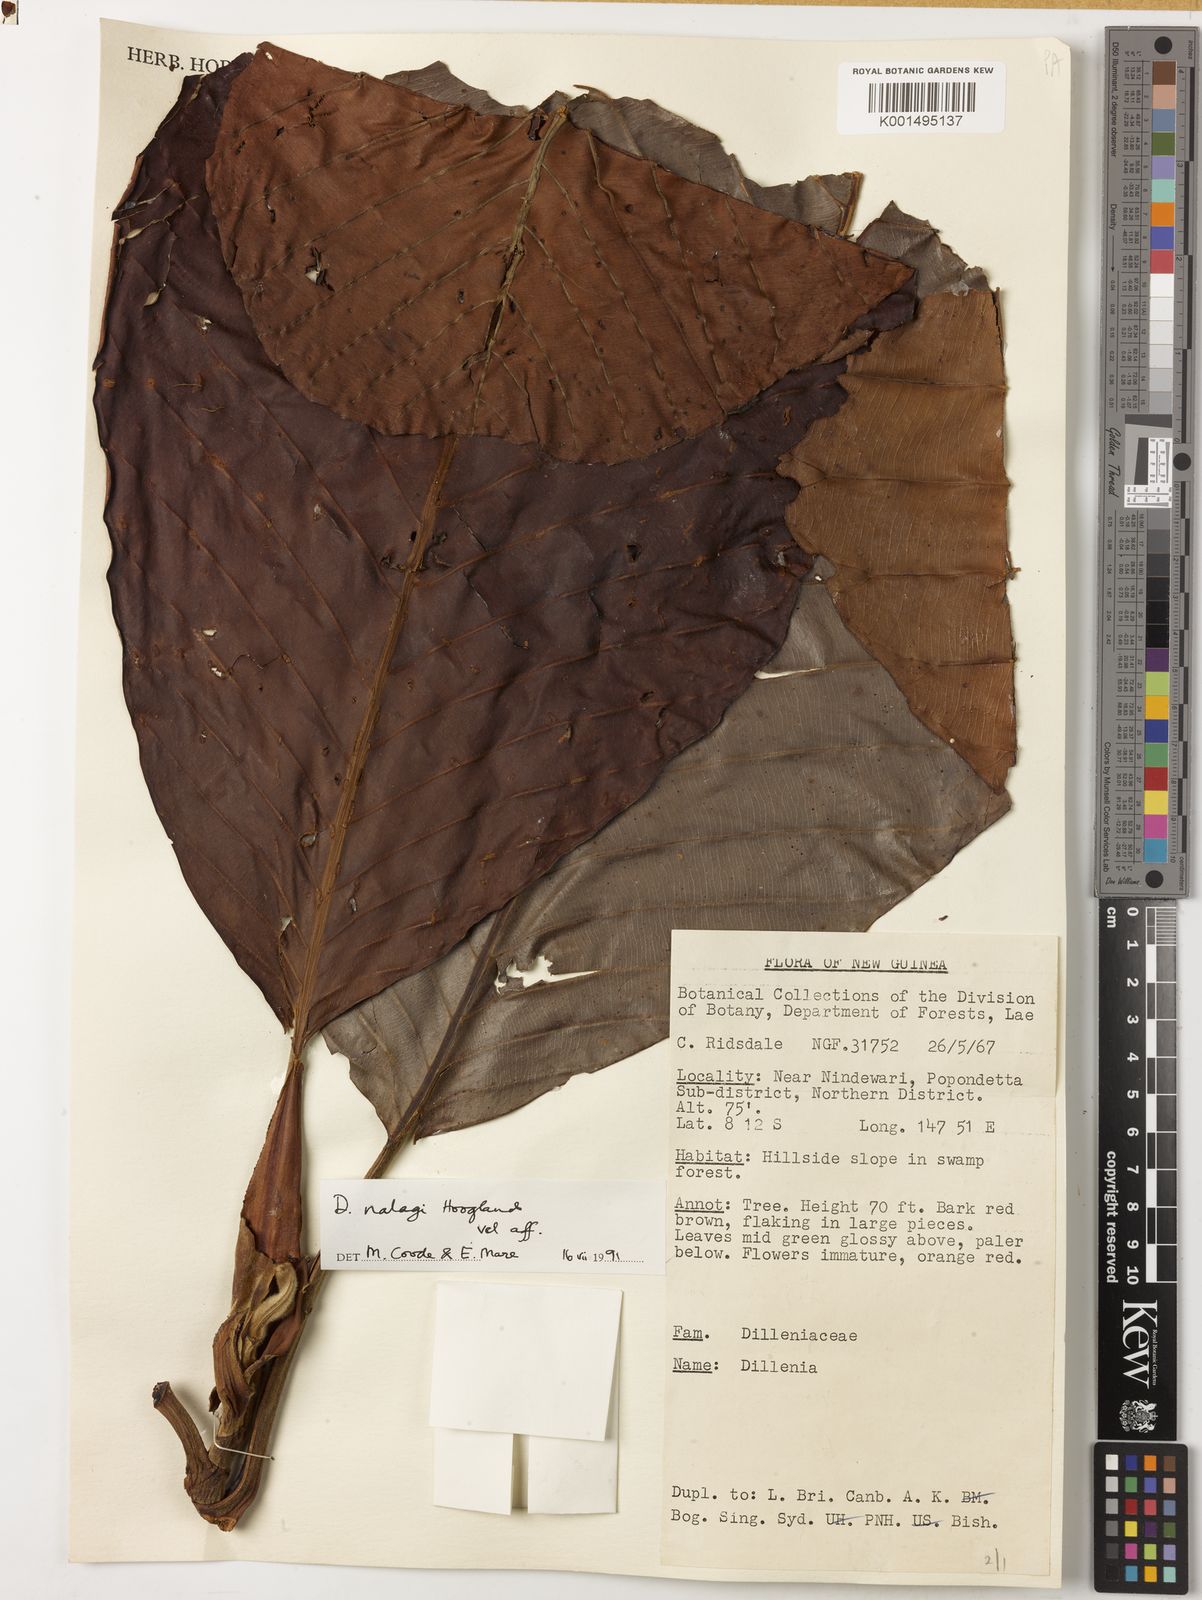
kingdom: Plantae
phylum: Tracheophyta
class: Magnoliopsida
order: Dilleniales
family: Dilleniaceae
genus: Dillenia
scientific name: Dillenia nalagi
